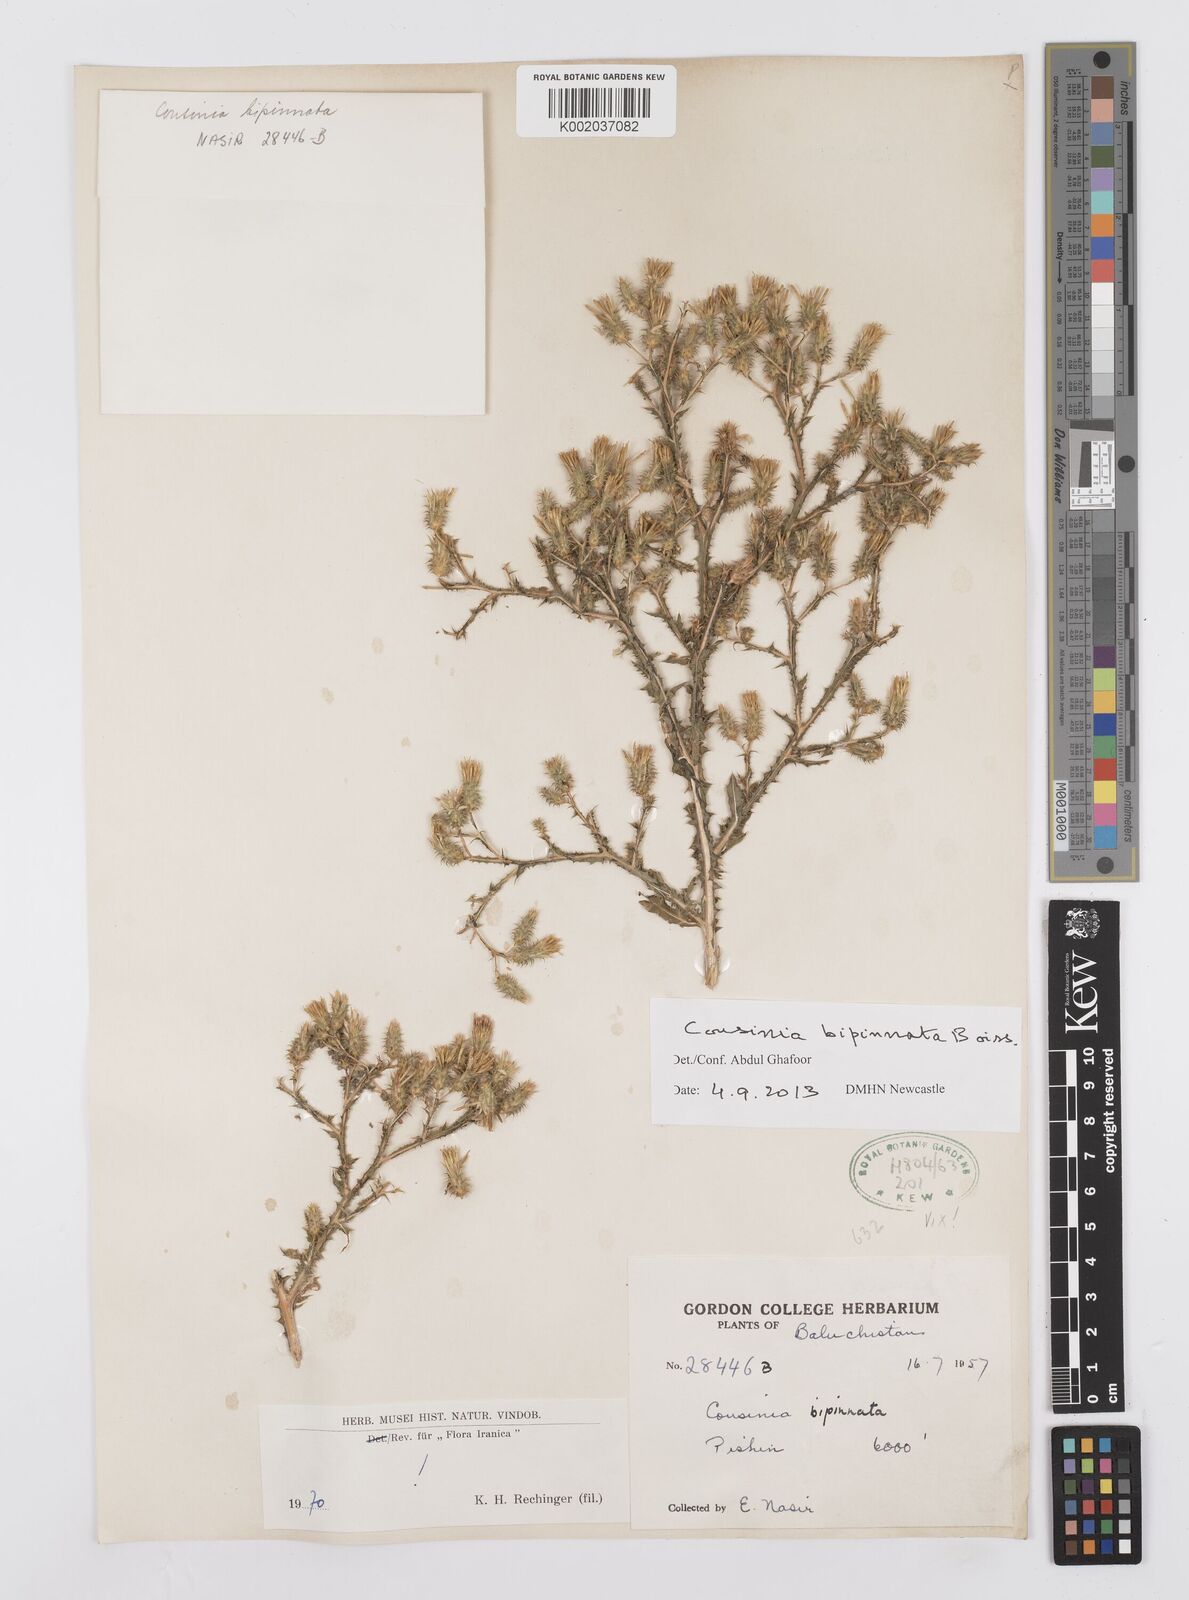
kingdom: Plantae
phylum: Tracheophyta
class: Magnoliopsida
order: Asterales
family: Asteraceae
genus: Cousinia
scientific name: Cousinia bipinnata
